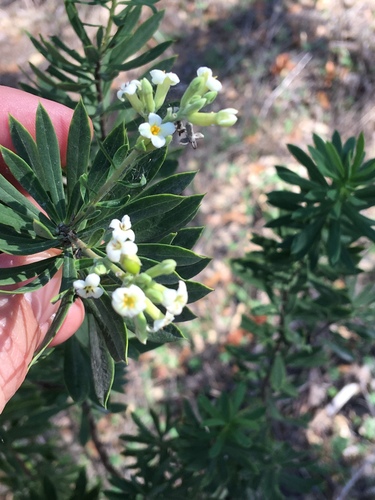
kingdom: Plantae
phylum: Tracheophyta
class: Magnoliopsida
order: Malvales
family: Thymelaeaceae
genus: Daphne
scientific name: Daphne gnidium
